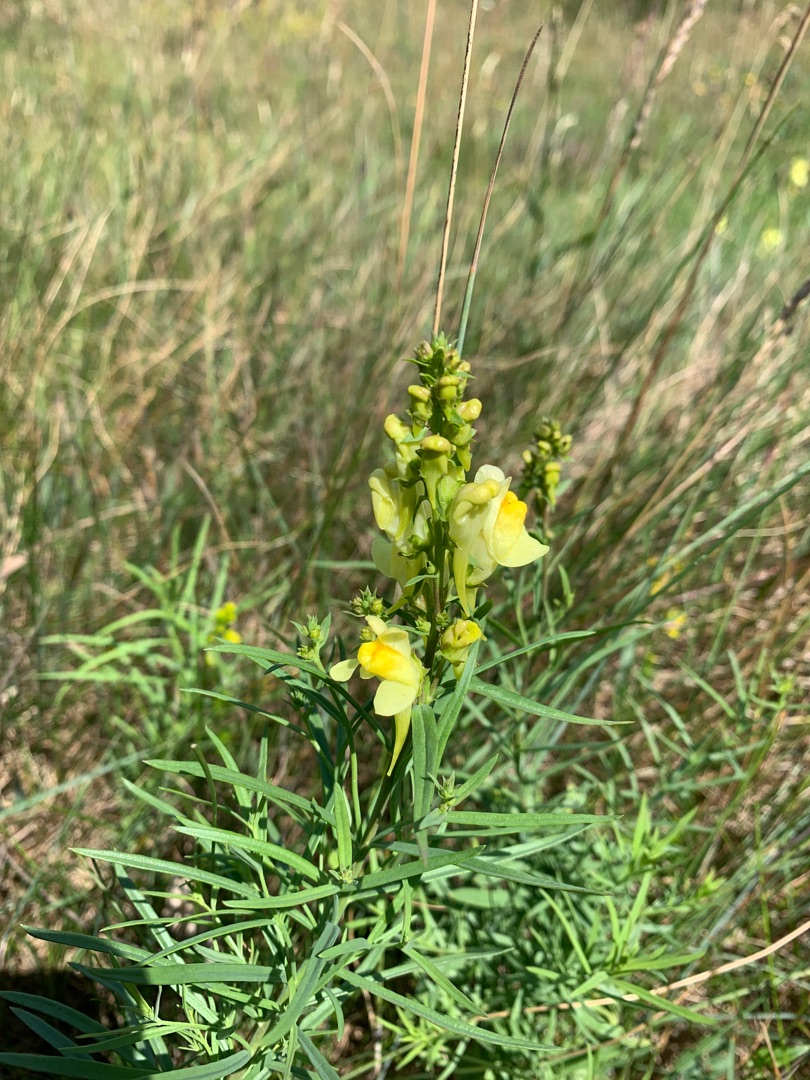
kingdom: Plantae
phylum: Tracheophyta
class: Magnoliopsida
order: Lamiales
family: Plantaginaceae
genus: Linaria
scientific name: Linaria vulgaris
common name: Almindelig torskemund
